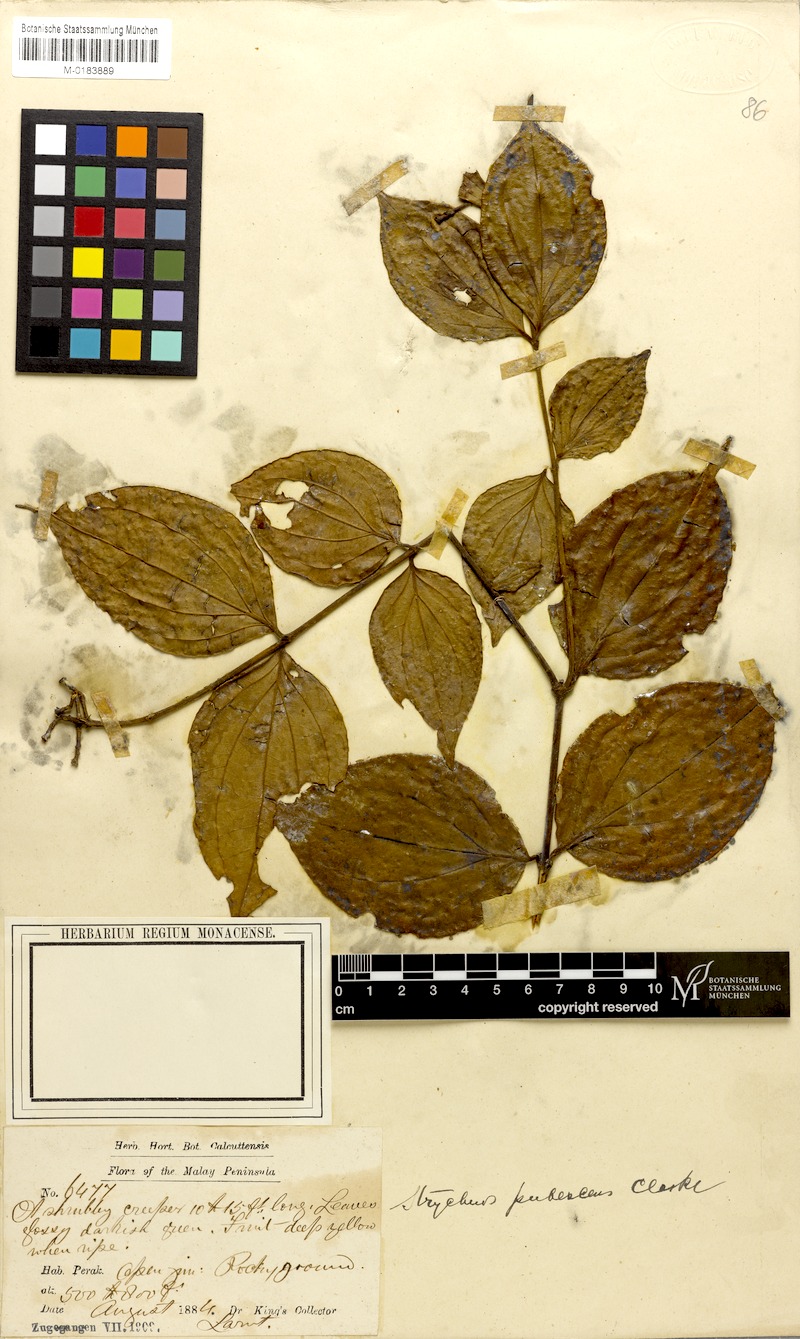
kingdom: Plantae
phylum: Tracheophyta
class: Magnoliopsida
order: Gentianales
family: Loganiaceae
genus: Strychnos
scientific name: Strychnos axillaris
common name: Strychninebush
